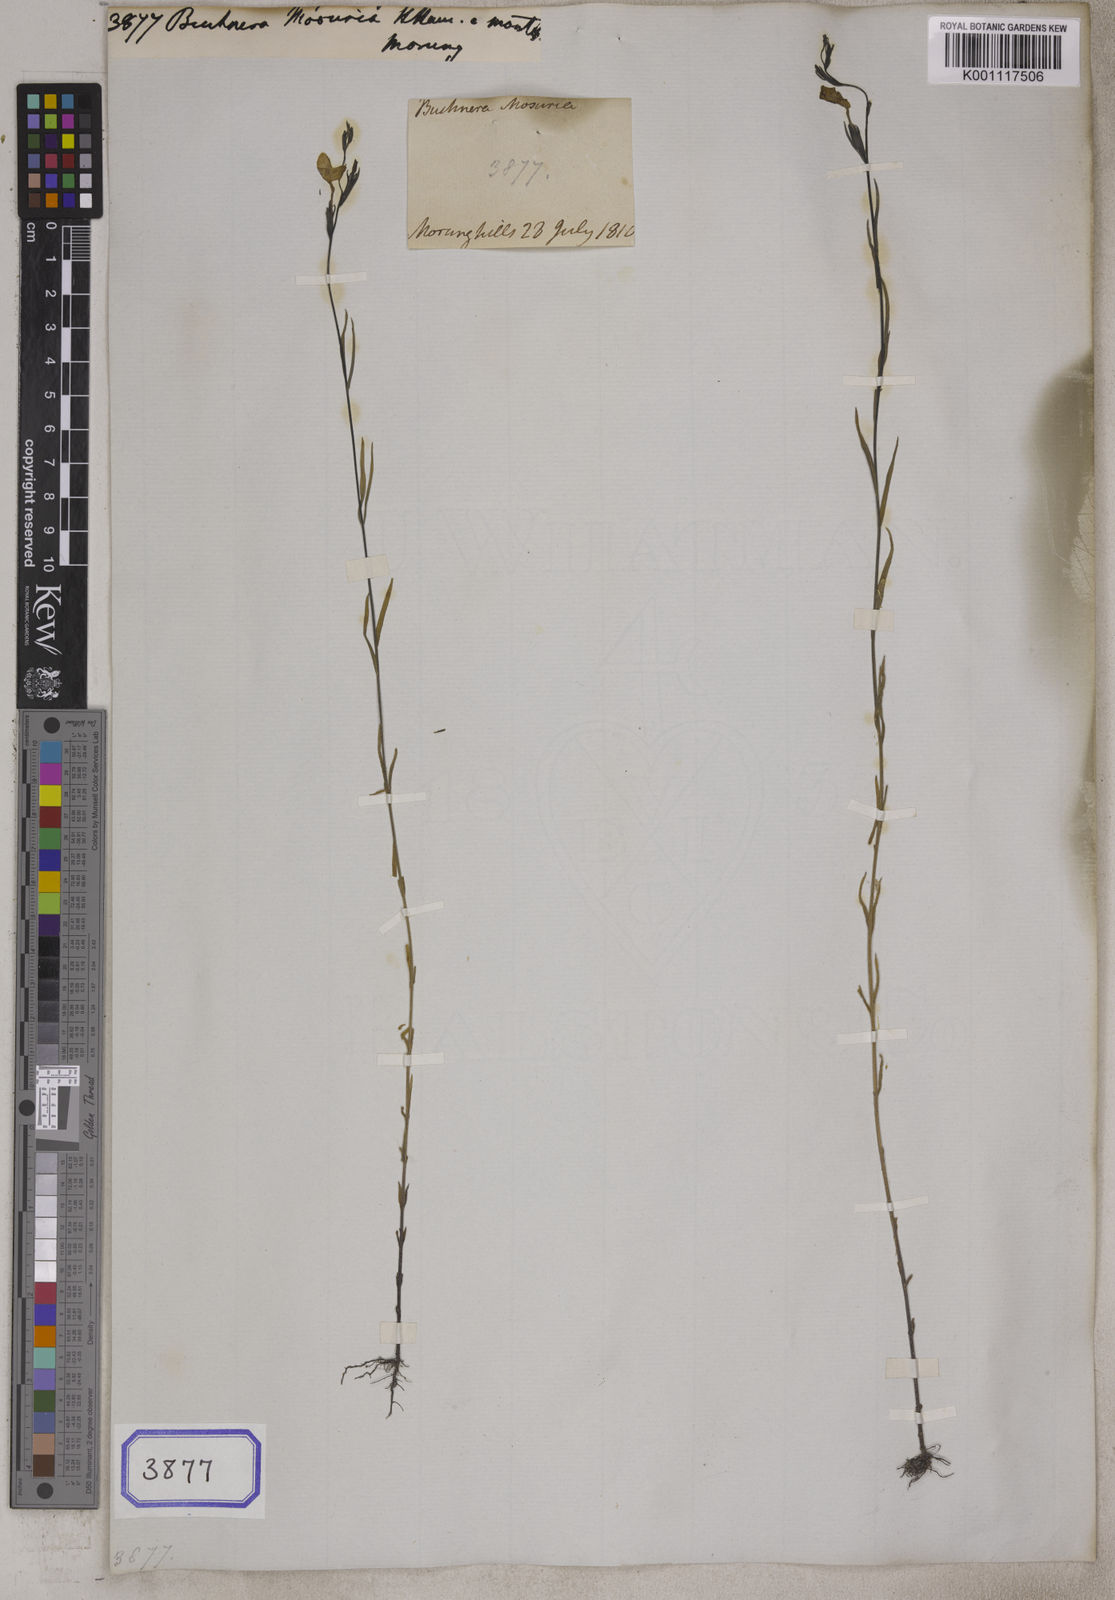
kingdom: Plantae
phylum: Tracheophyta
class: Magnoliopsida
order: Lamiales
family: Orobanchaceae
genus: Striga
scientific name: Striga masuria
